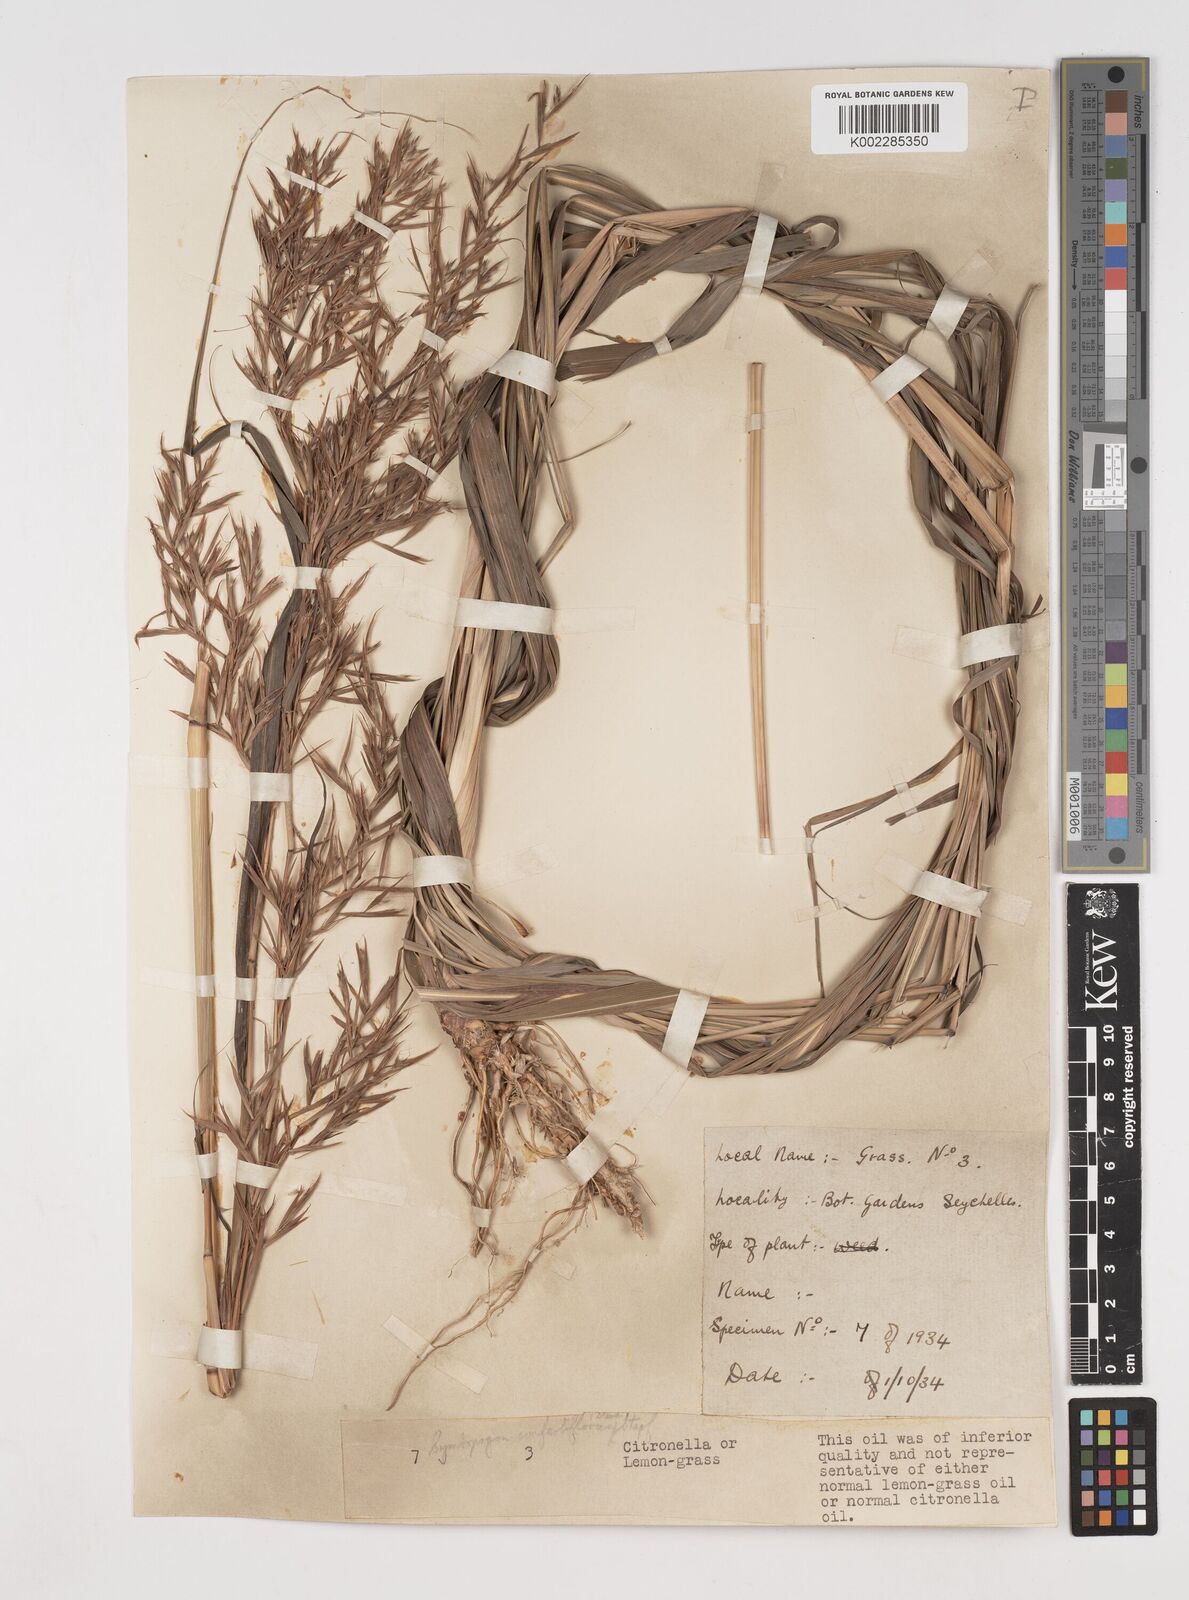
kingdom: Plantae
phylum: Tracheophyta
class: Liliopsida
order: Poales
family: Poaceae
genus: Cymbopogon
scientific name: Cymbopogon nardus
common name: Giant turpentine grass
